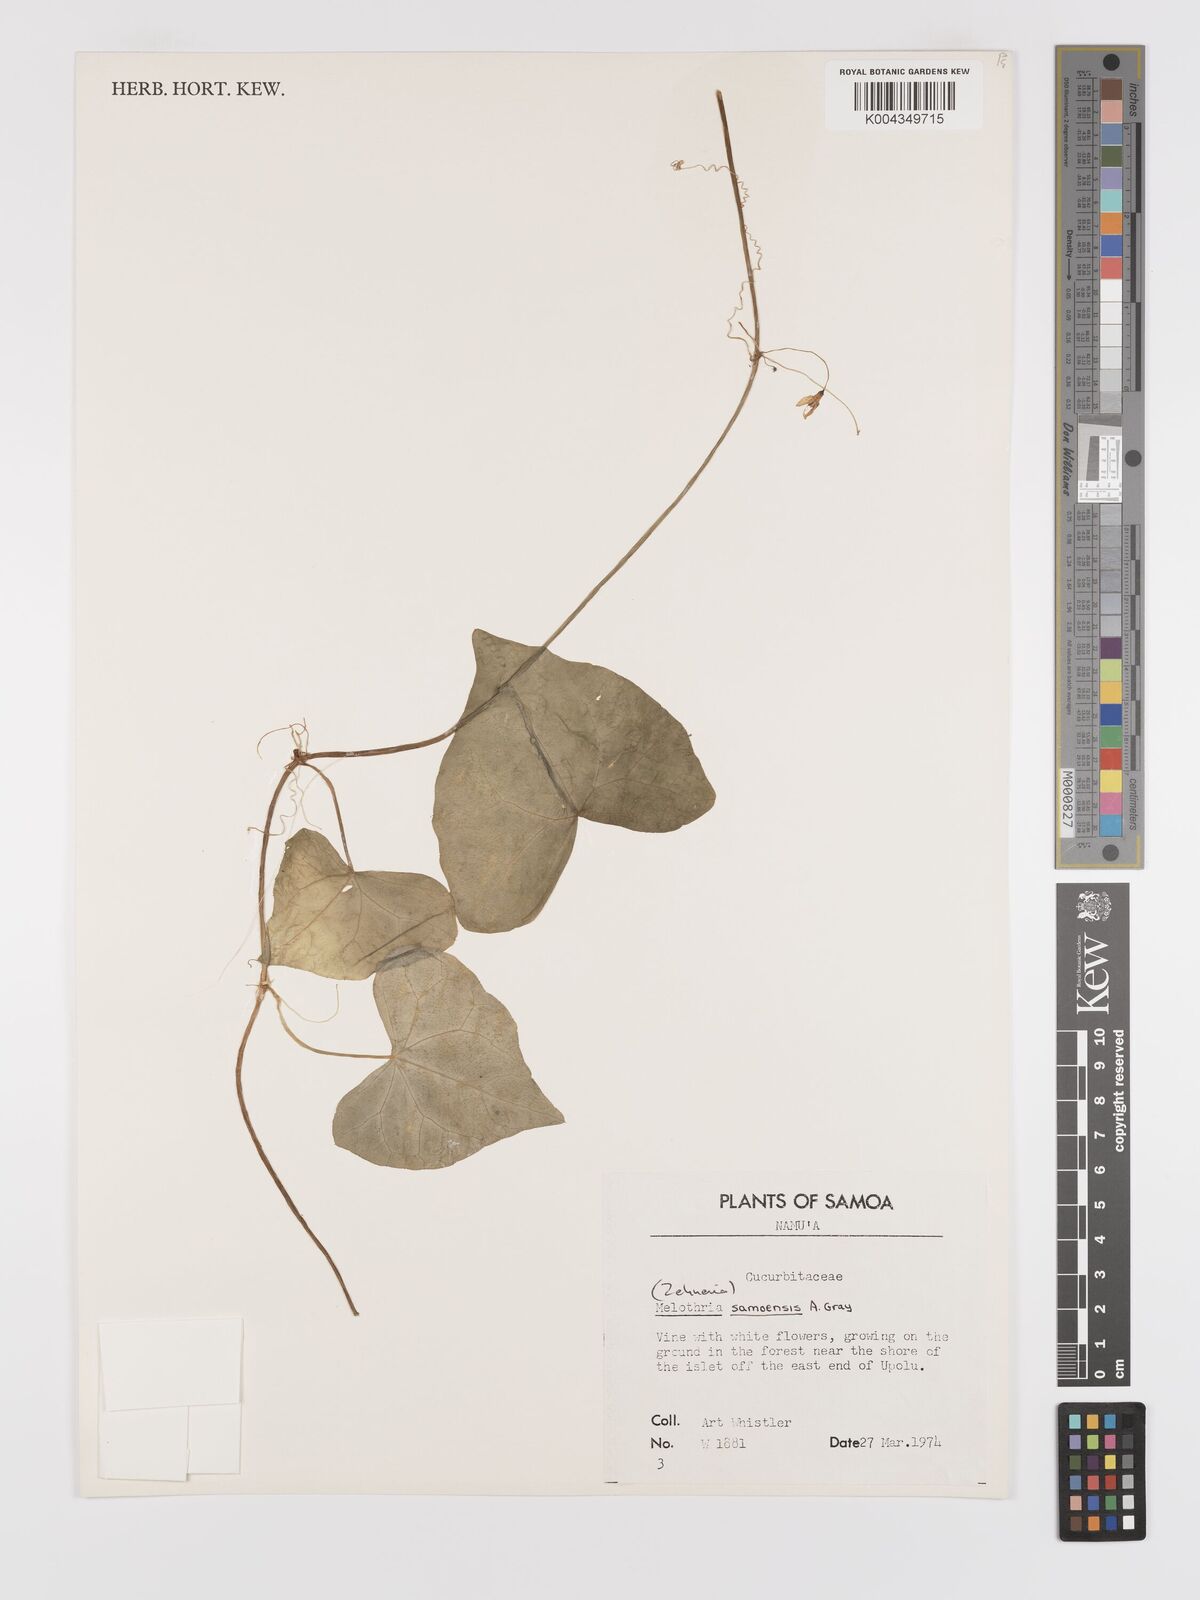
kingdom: Plantae
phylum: Tracheophyta
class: Magnoliopsida
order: Cucurbitales
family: Cucurbitaceae
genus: Zehneria
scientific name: Zehneria mucronata
